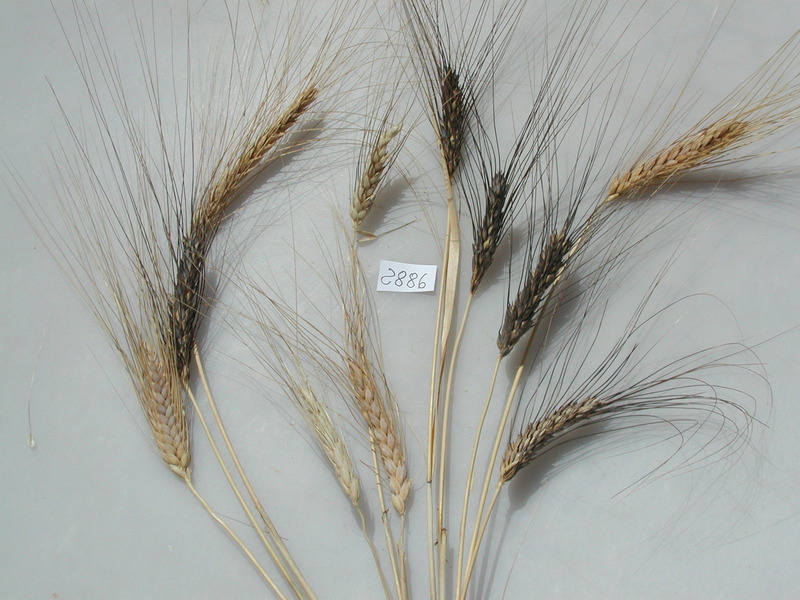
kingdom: Plantae
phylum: Tracheophyta
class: Liliopsida
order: Poales
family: Poaceae
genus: Triticum
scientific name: Triticum turgidum
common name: Wheat
